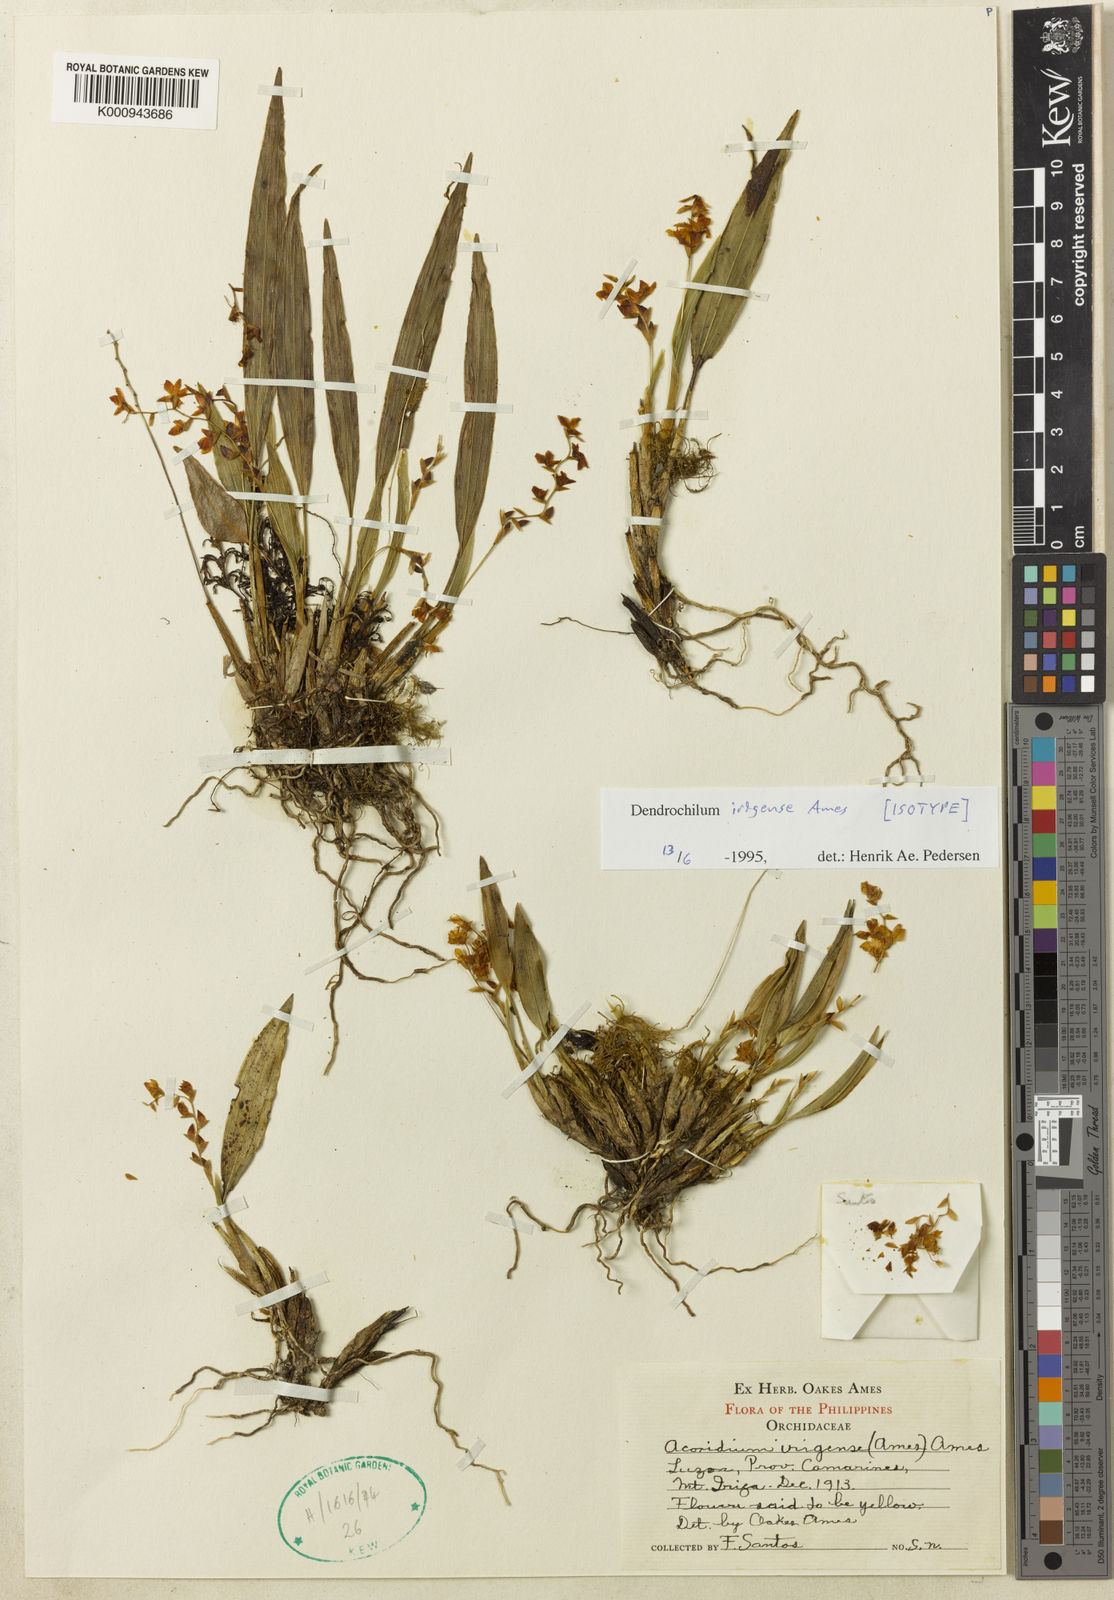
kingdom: Plantae
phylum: Tracheophyta
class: Liliopsida
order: Asparagales
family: Orchidaceae
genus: Coelogyne
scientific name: Coelogyne irigensis
